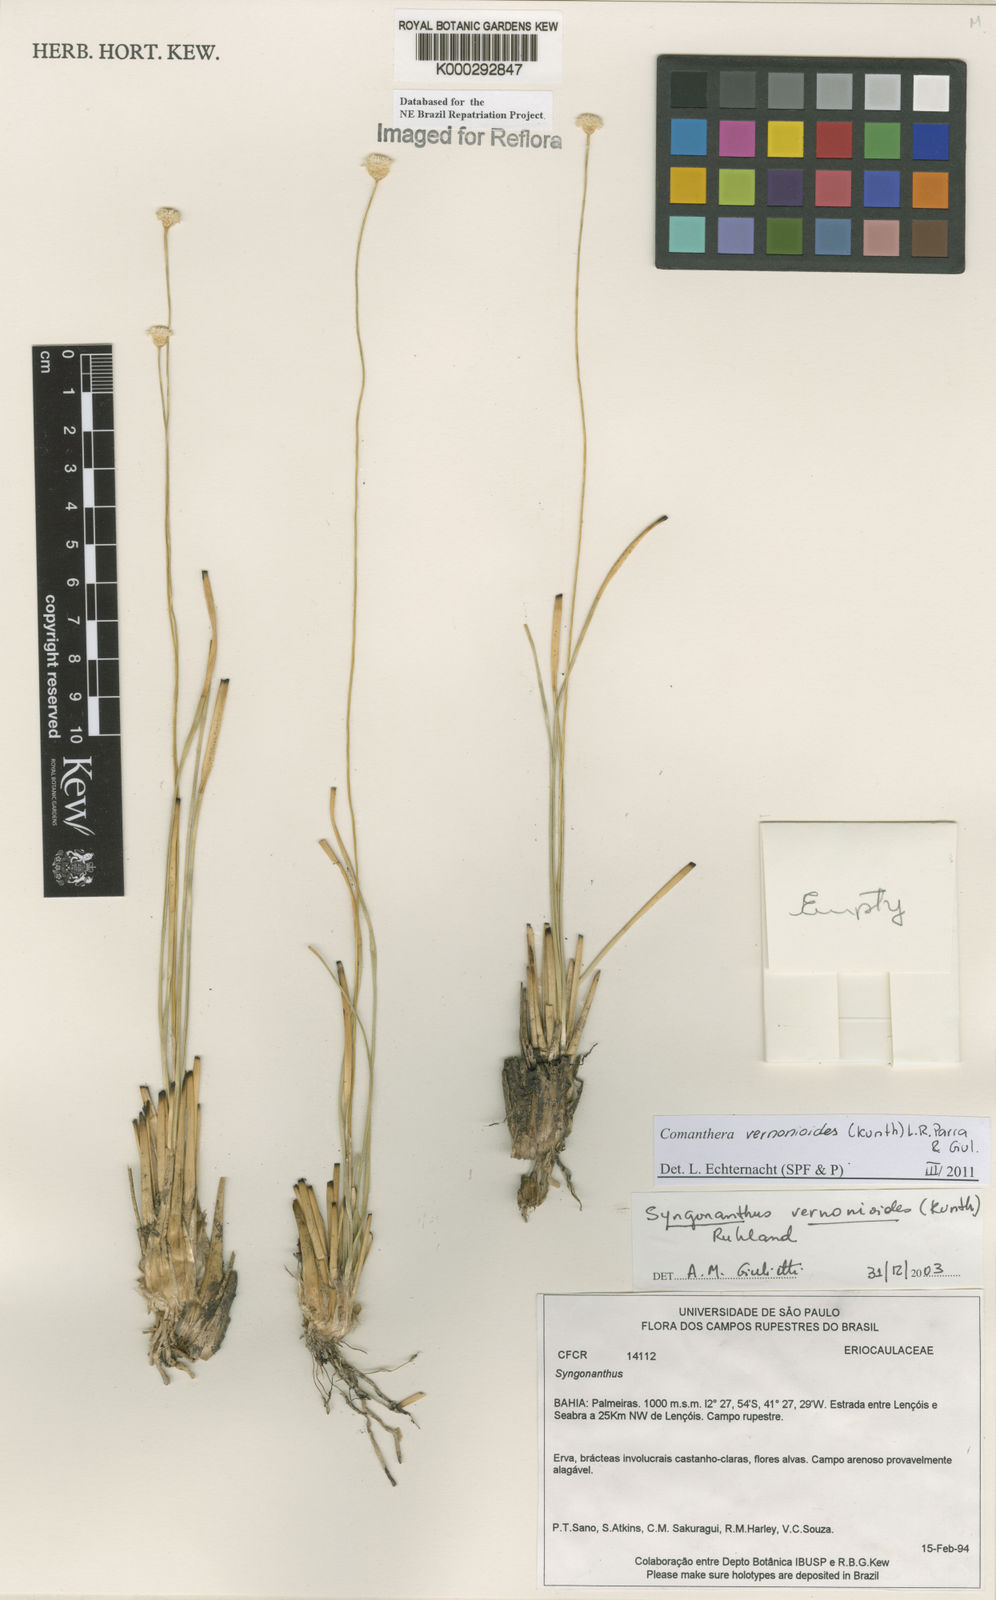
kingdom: Plantae
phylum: Tracheophyta
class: Liliopsida
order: Poales
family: Eriocaulaceae
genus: Comanthera
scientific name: Comanthera centauroides
